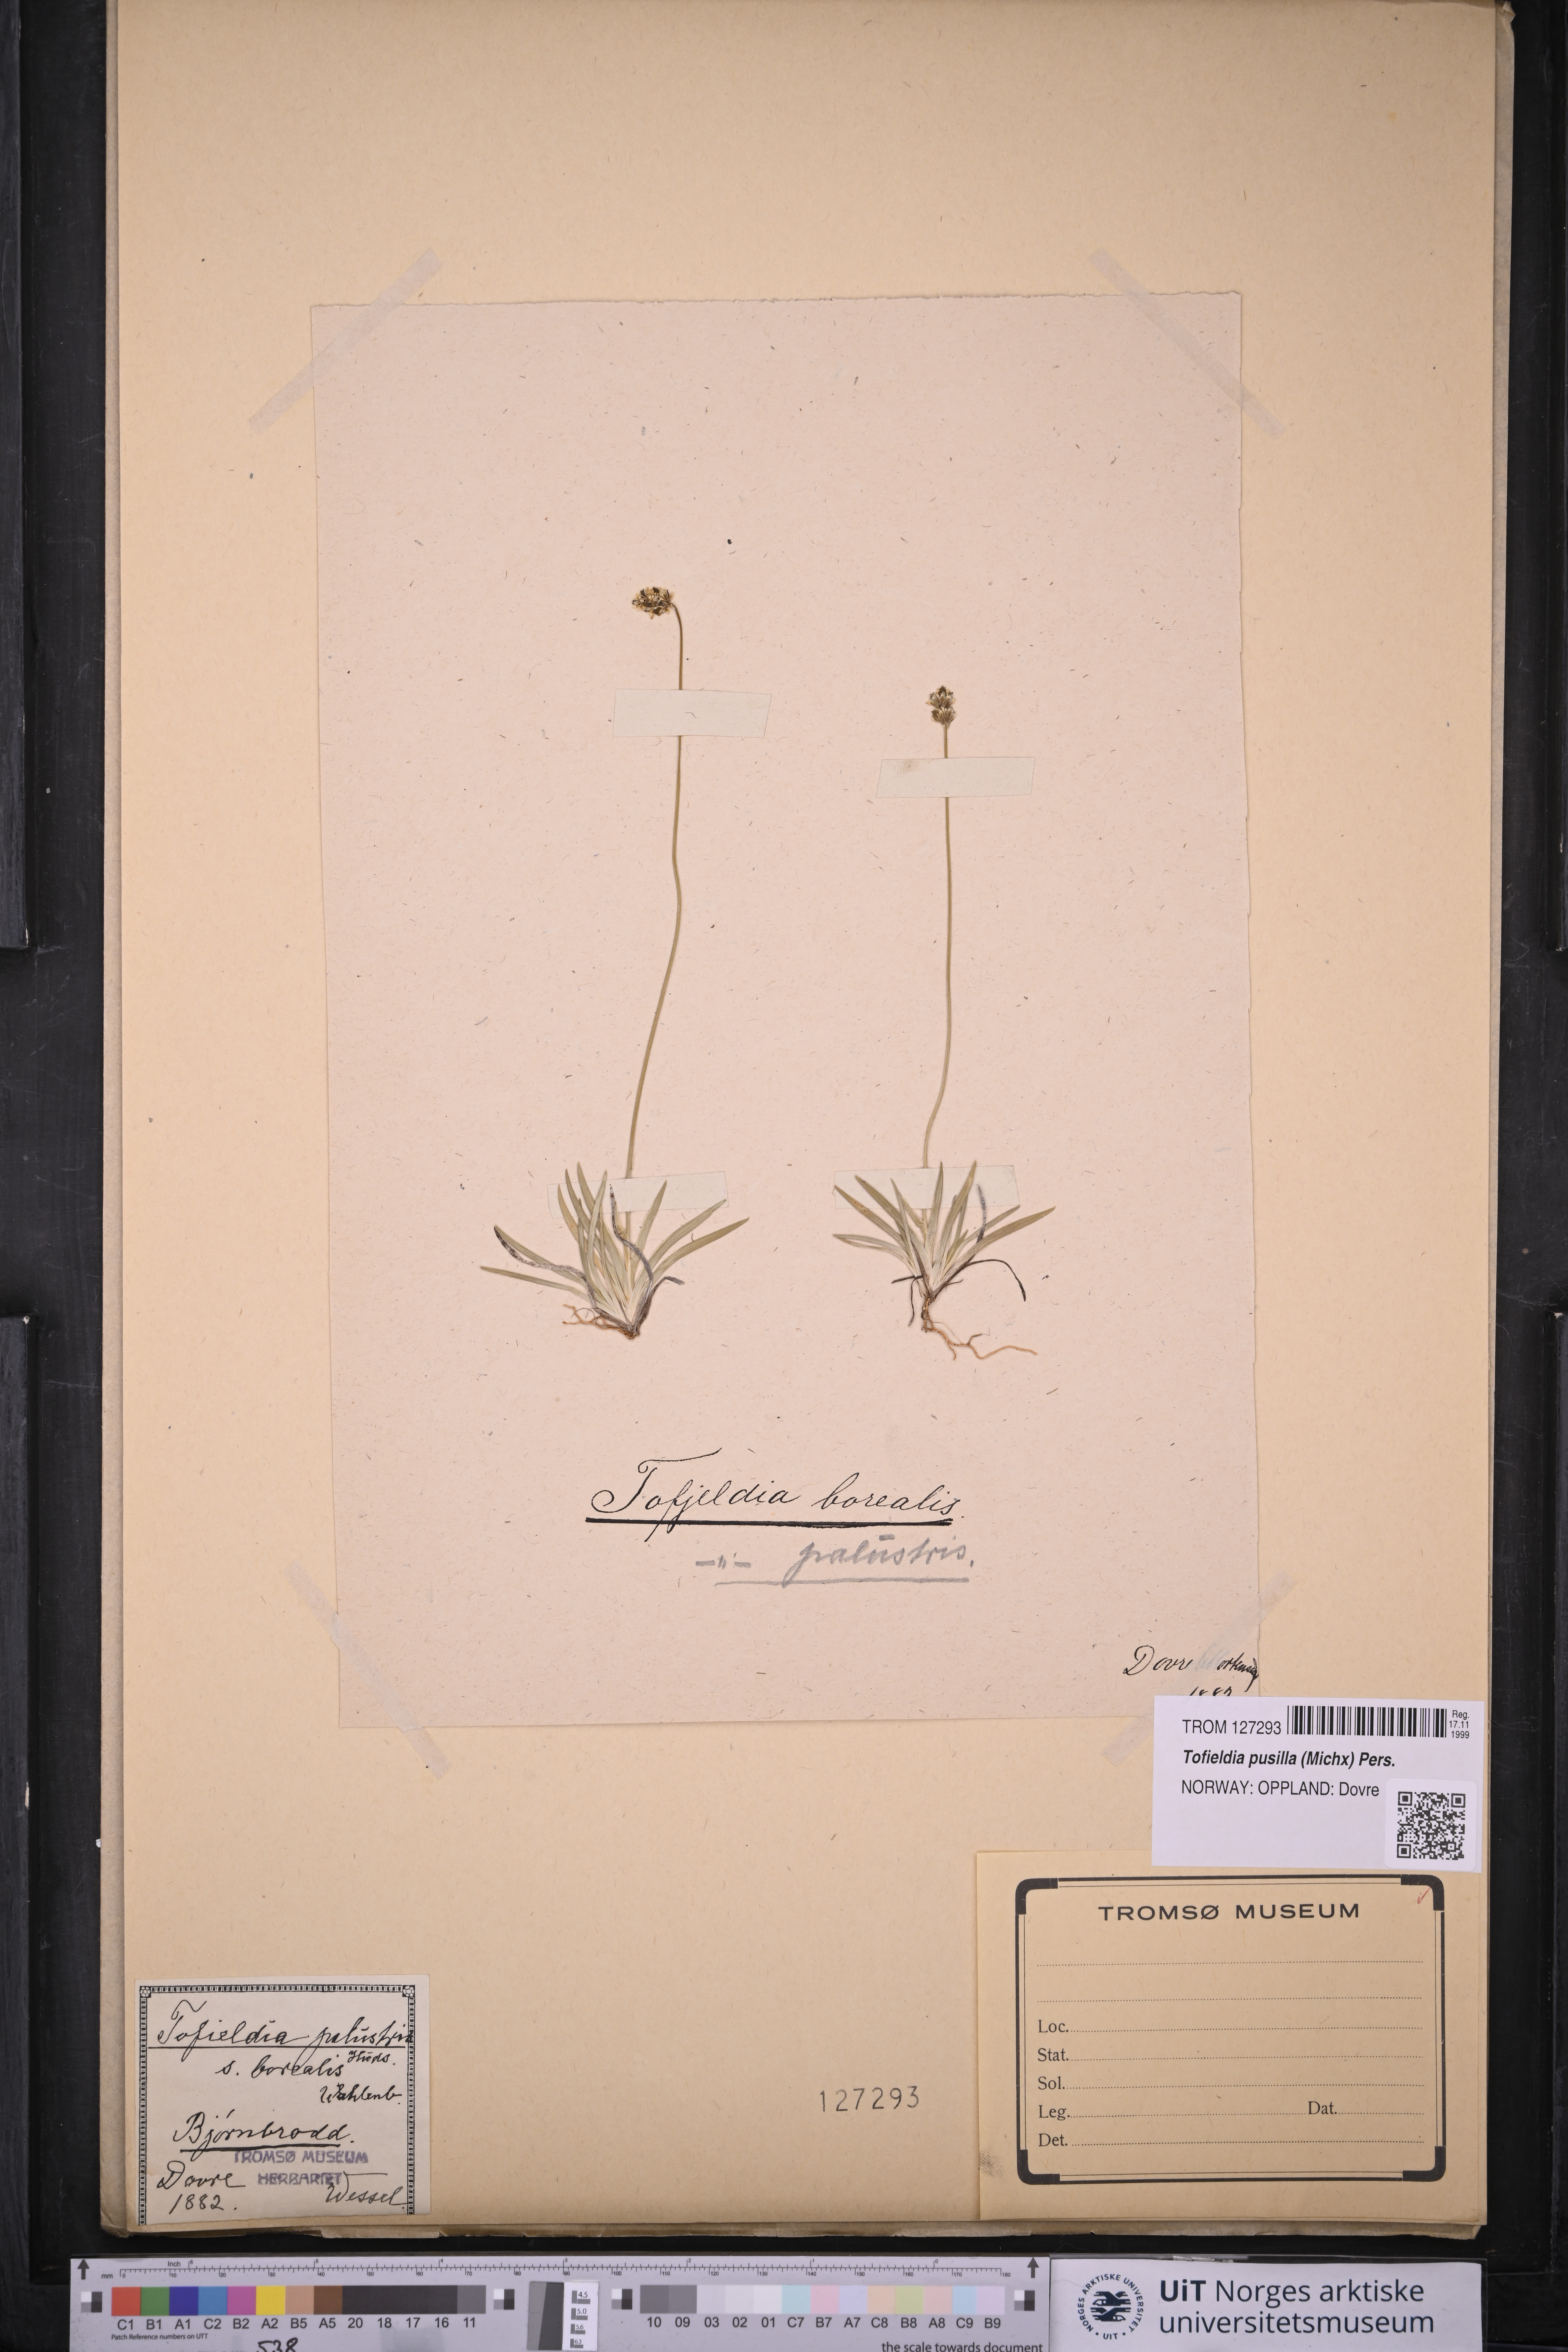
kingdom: Plantae
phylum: Tracheophyta
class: Liliopsida
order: Alismatales
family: Tofieldiaceae
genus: Tofieldia
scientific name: Tofieldia pusilla
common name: Scottish false asphodel
